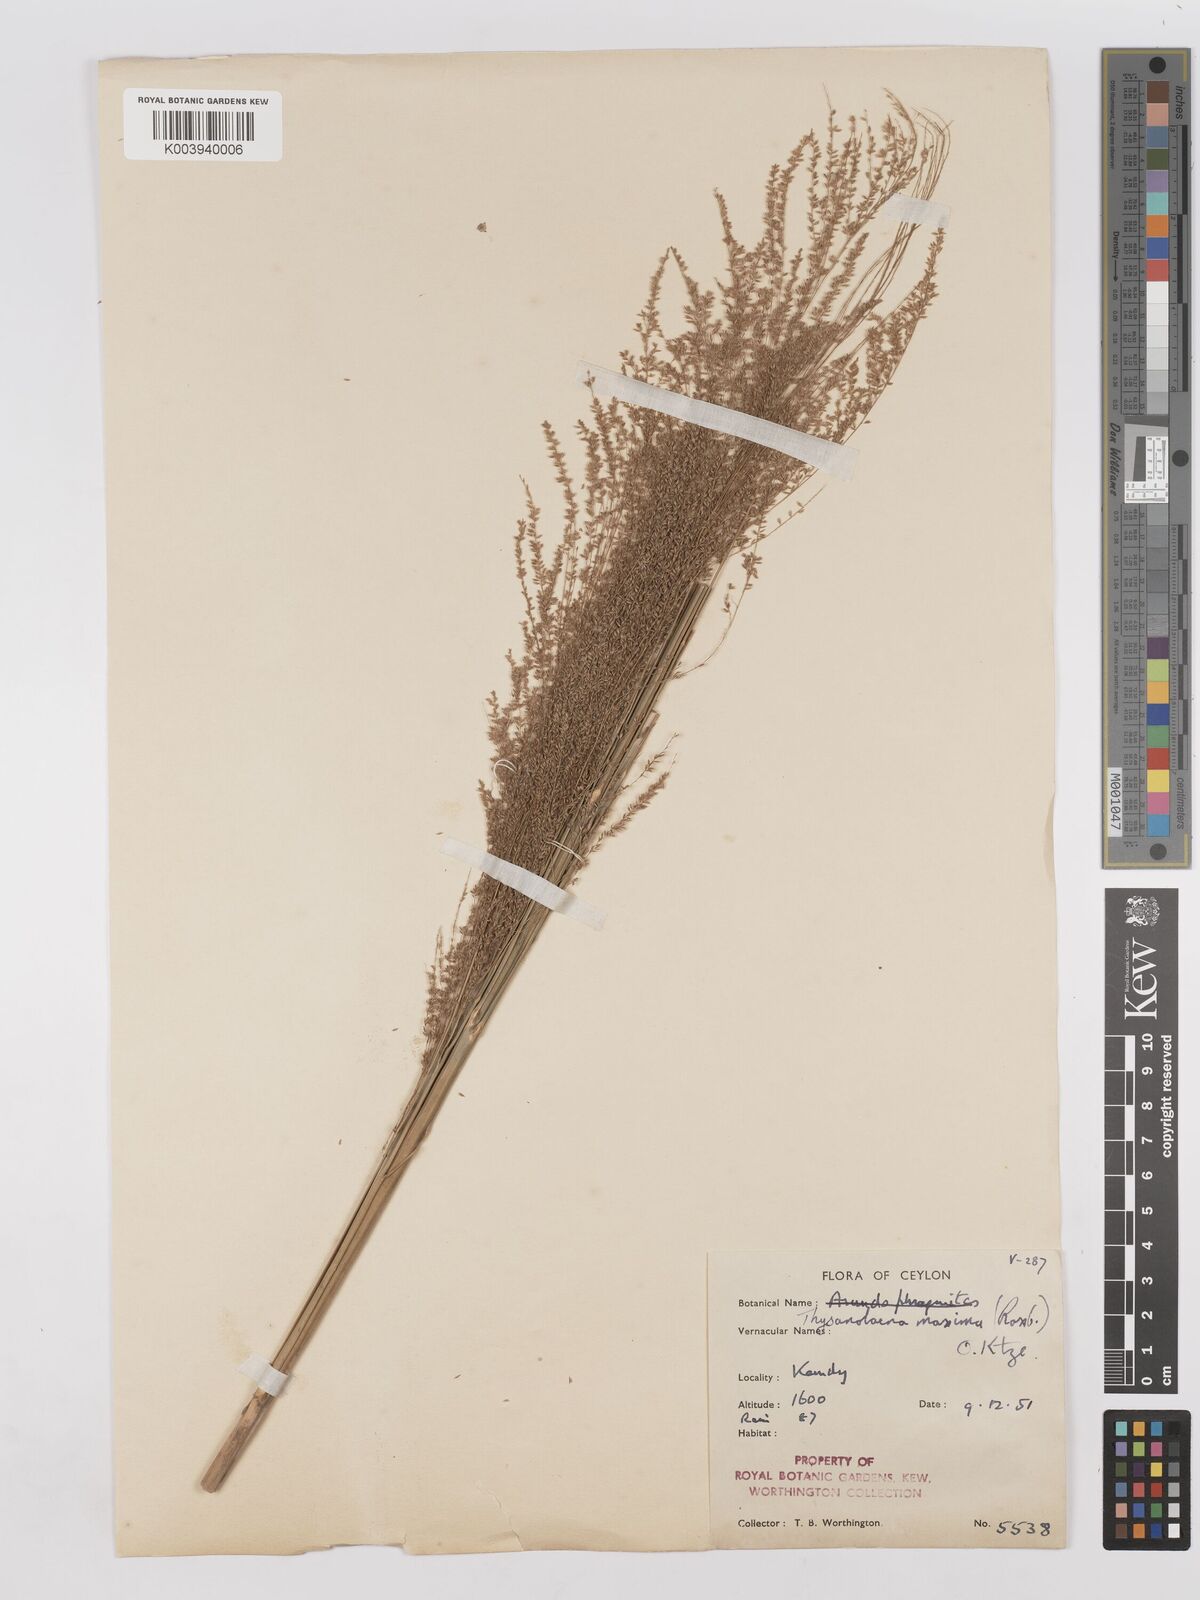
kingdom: Plantae
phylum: Tracheophyta
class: Liliopsida
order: Poales
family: Poaceae
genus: Thysanolaena
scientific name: Thysanolaena latifolia
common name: Tiger grass
